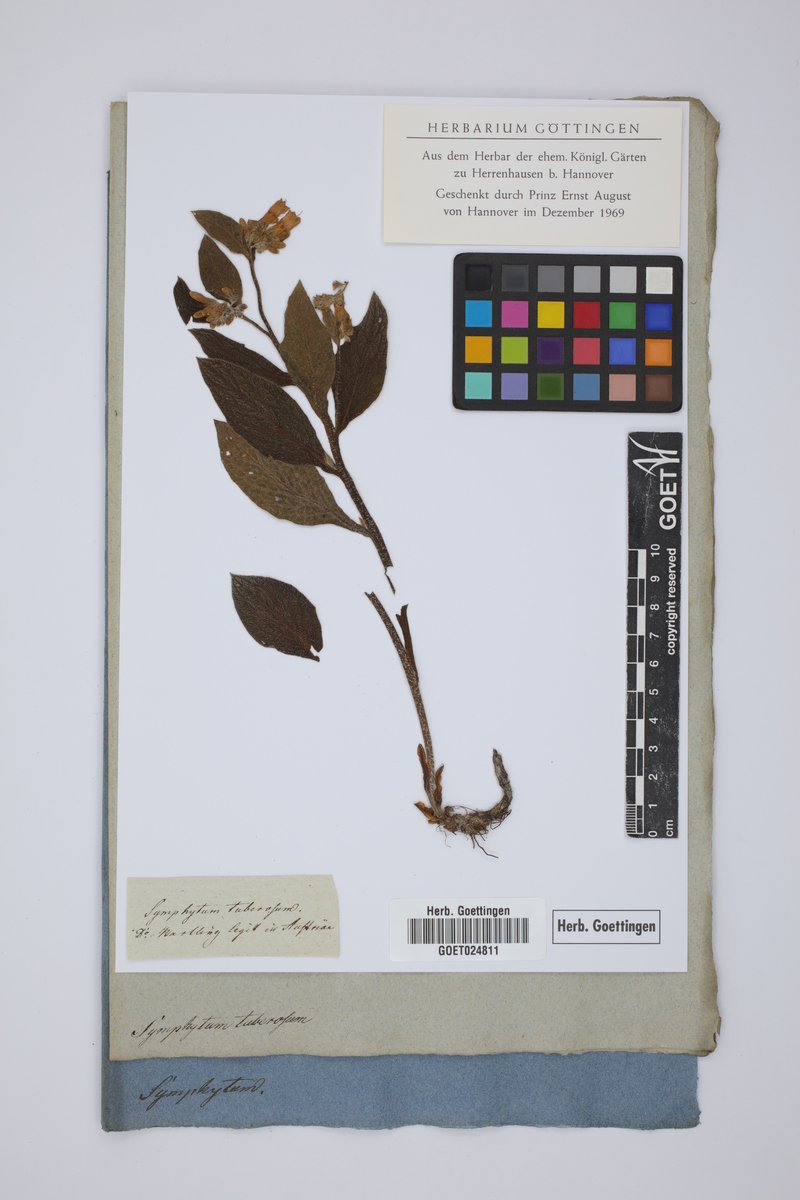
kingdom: Plantae
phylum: Tracheophyta
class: Magnoliopsida
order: Boraginales
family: Boraginaceae
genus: Symphytum
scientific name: Symphytum tuberosum
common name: Tuberous comfrey
